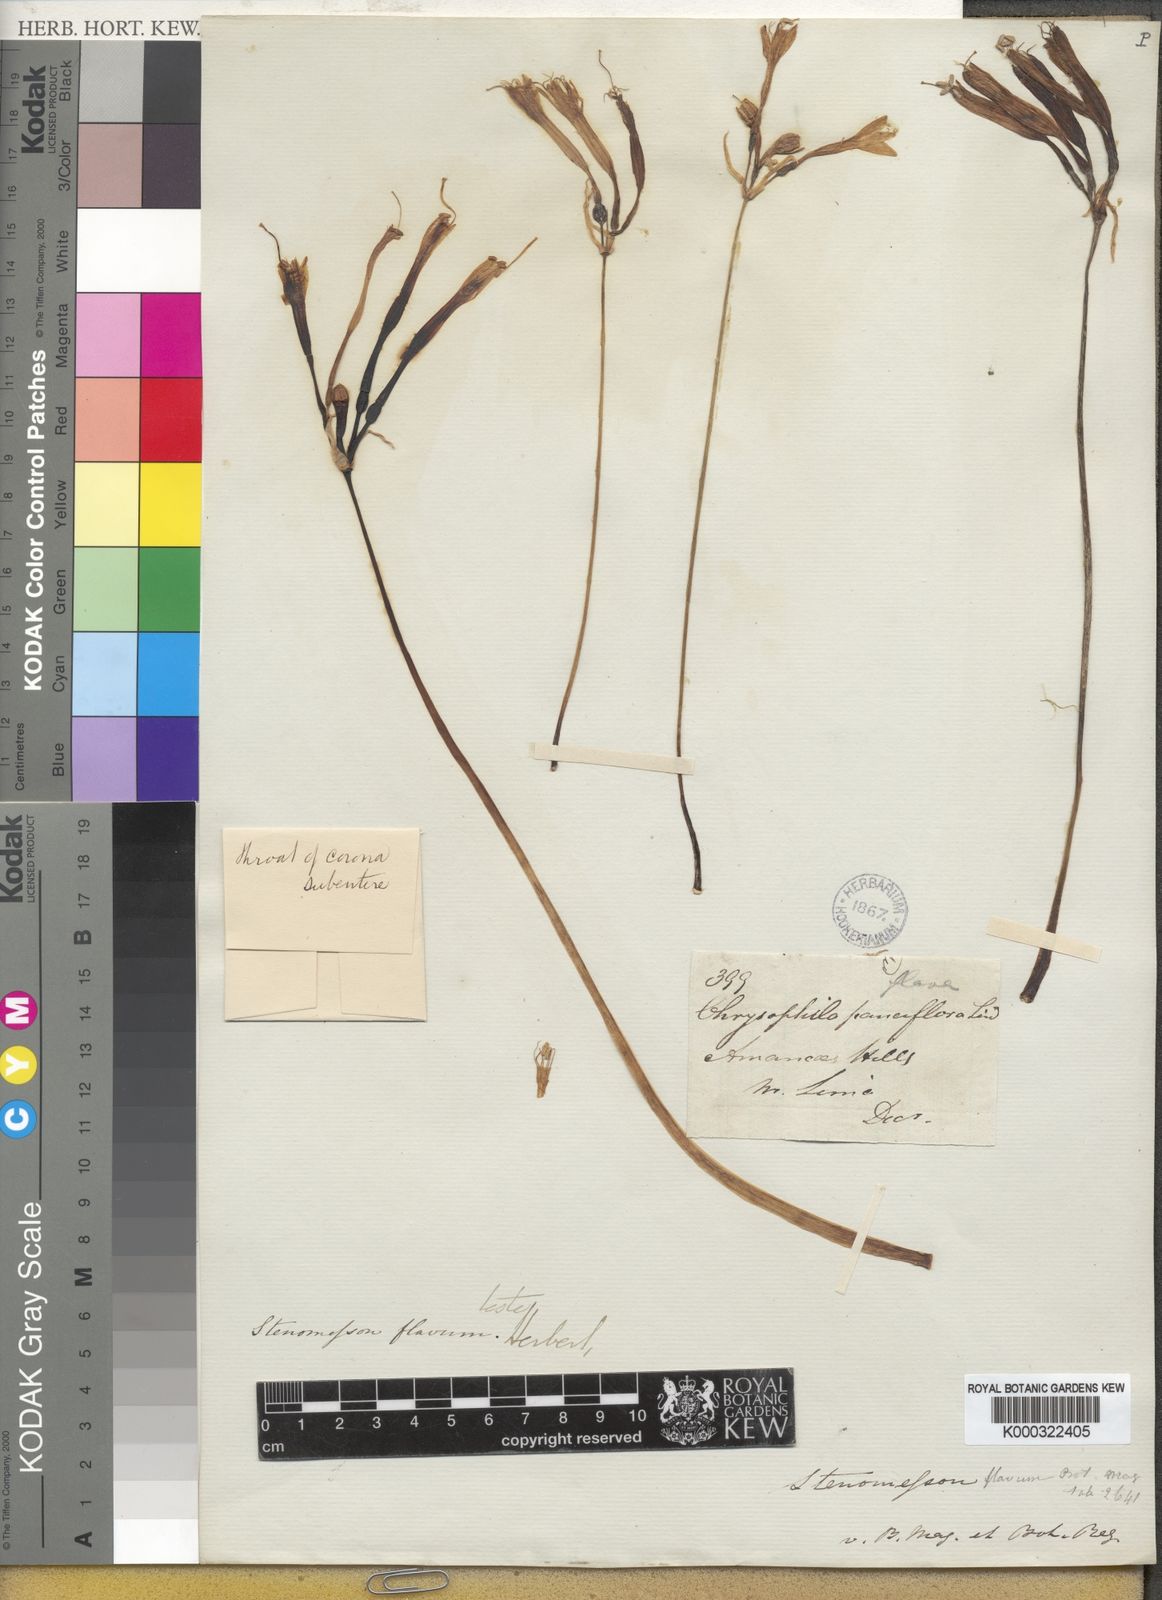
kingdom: Plantae
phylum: Tracheophyta
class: Liliopsida
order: Asparagales
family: Amaryllidaceae
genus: Stenomesson
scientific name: Stenomesson
